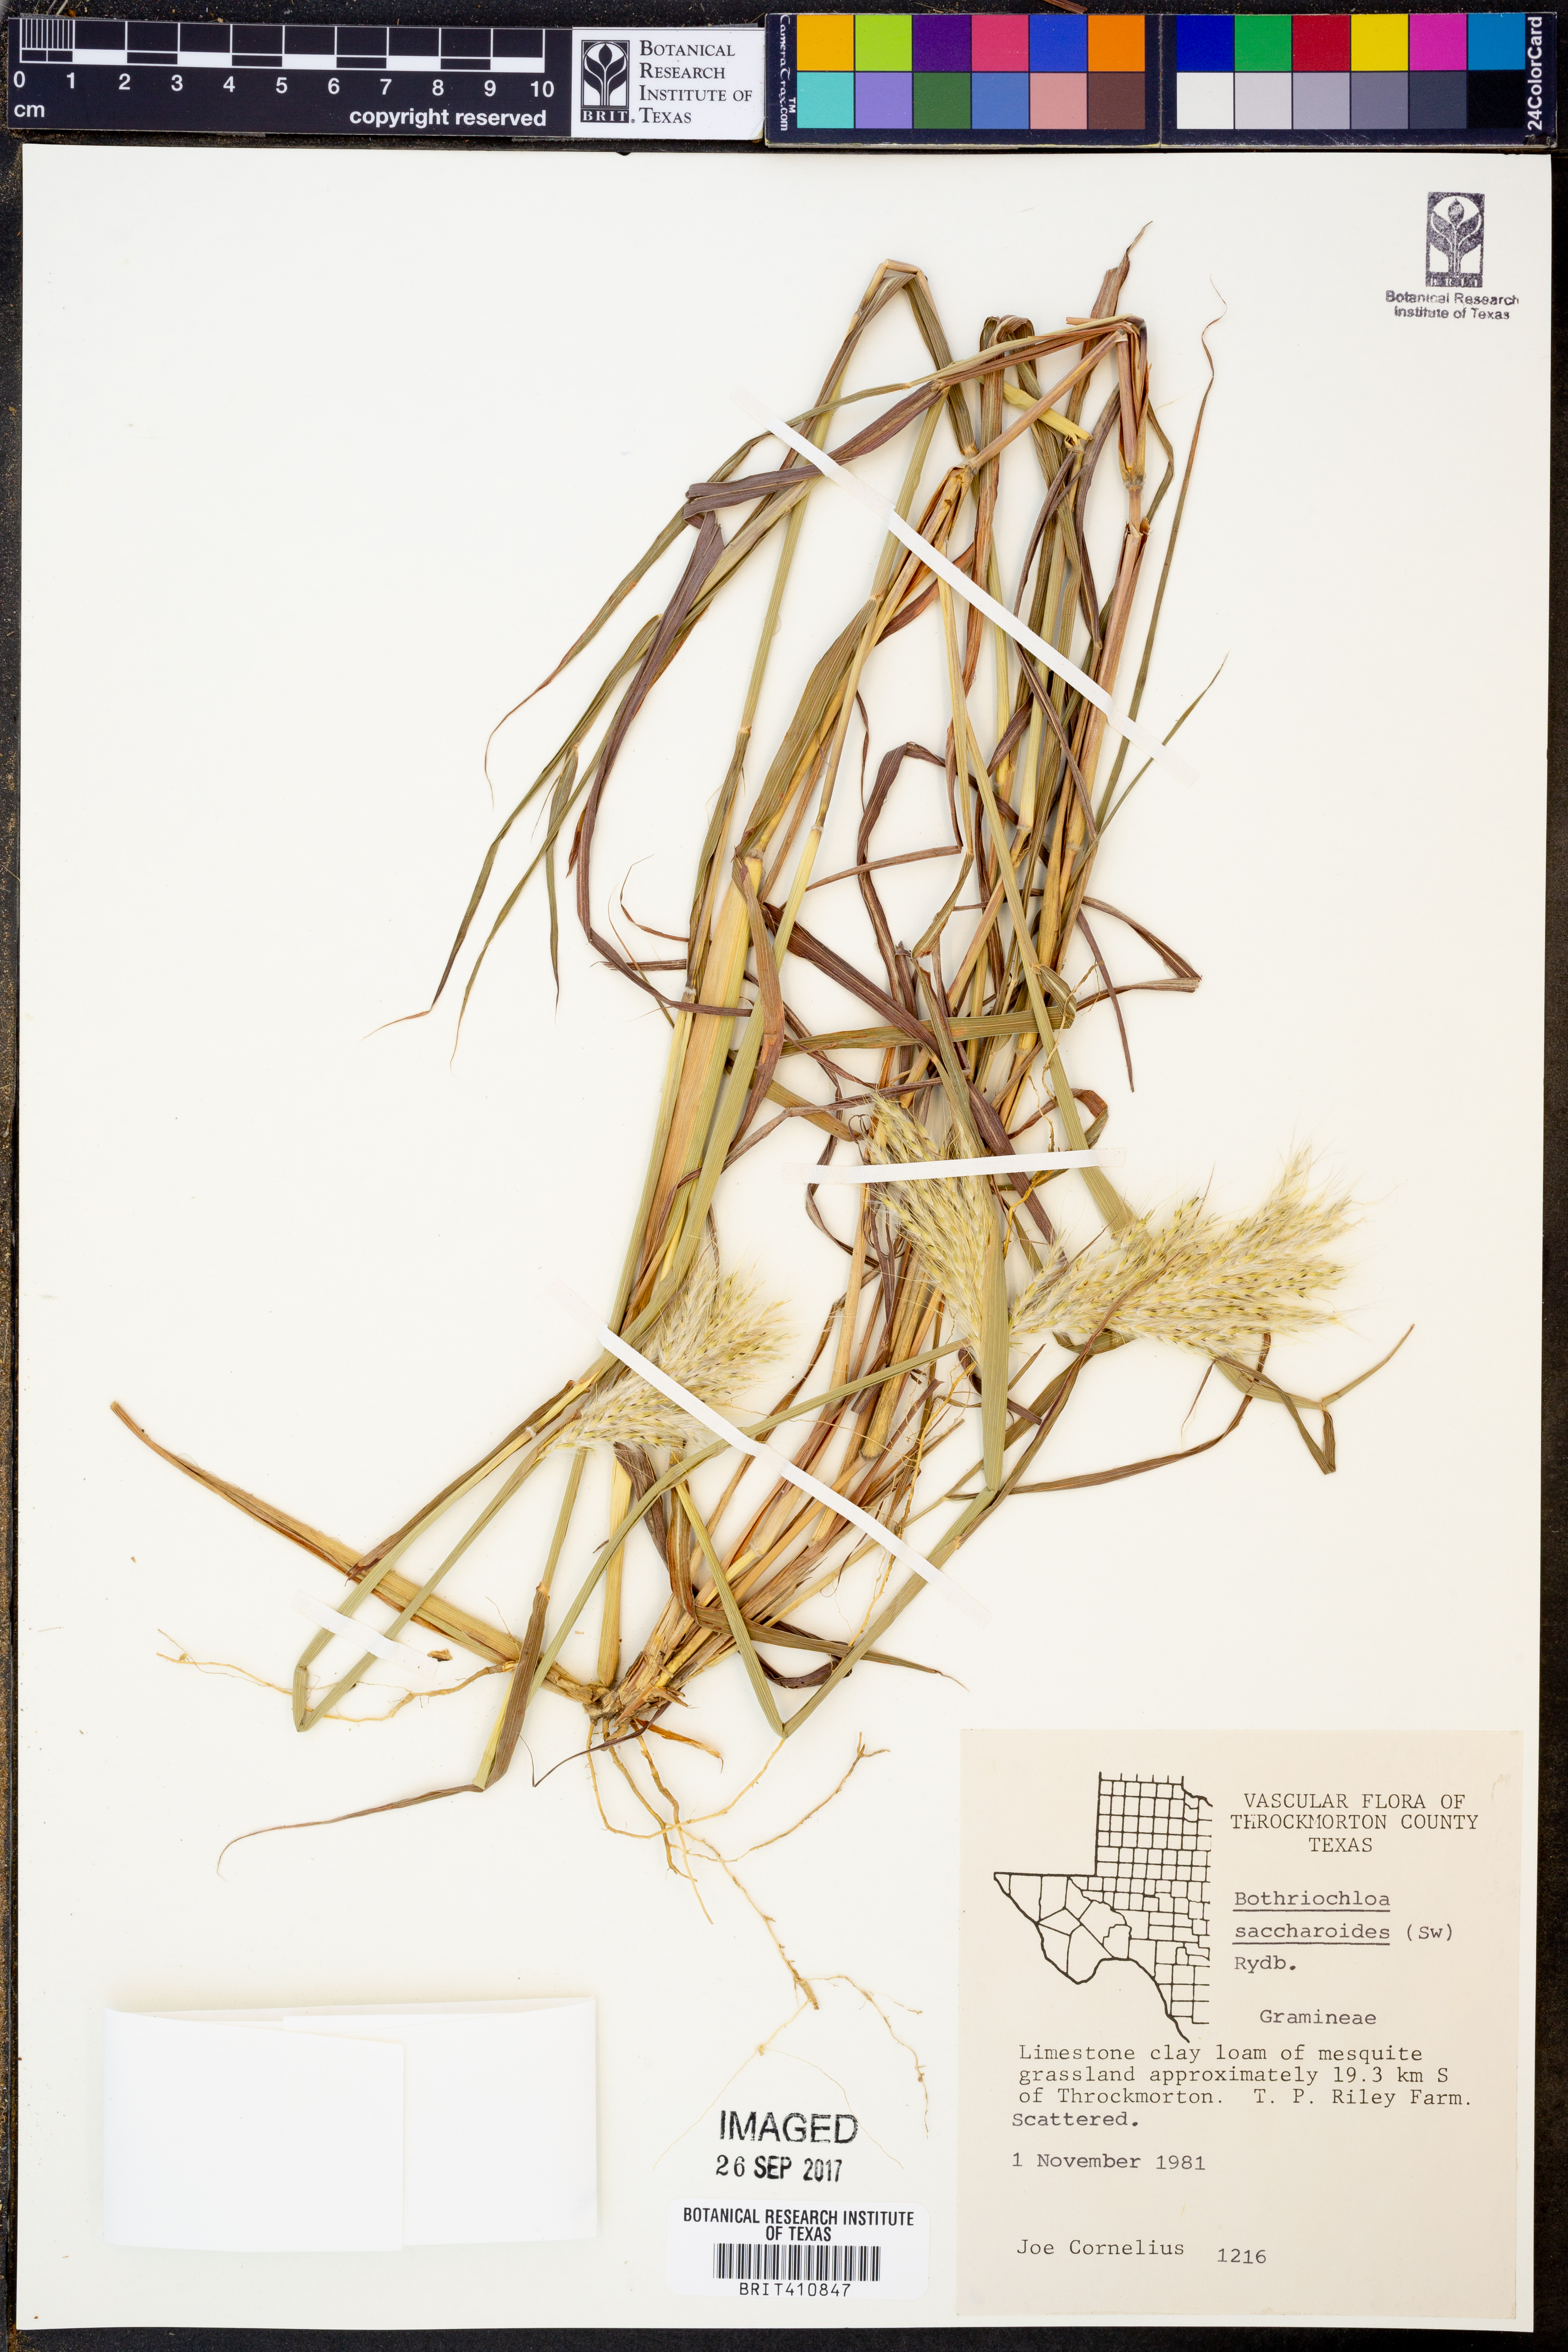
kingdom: Plantae
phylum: Tracheophyta
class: Liliopsida
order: Poales
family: Poaceae
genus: Bothriochloa
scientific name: Bothriochloa saccharoides
